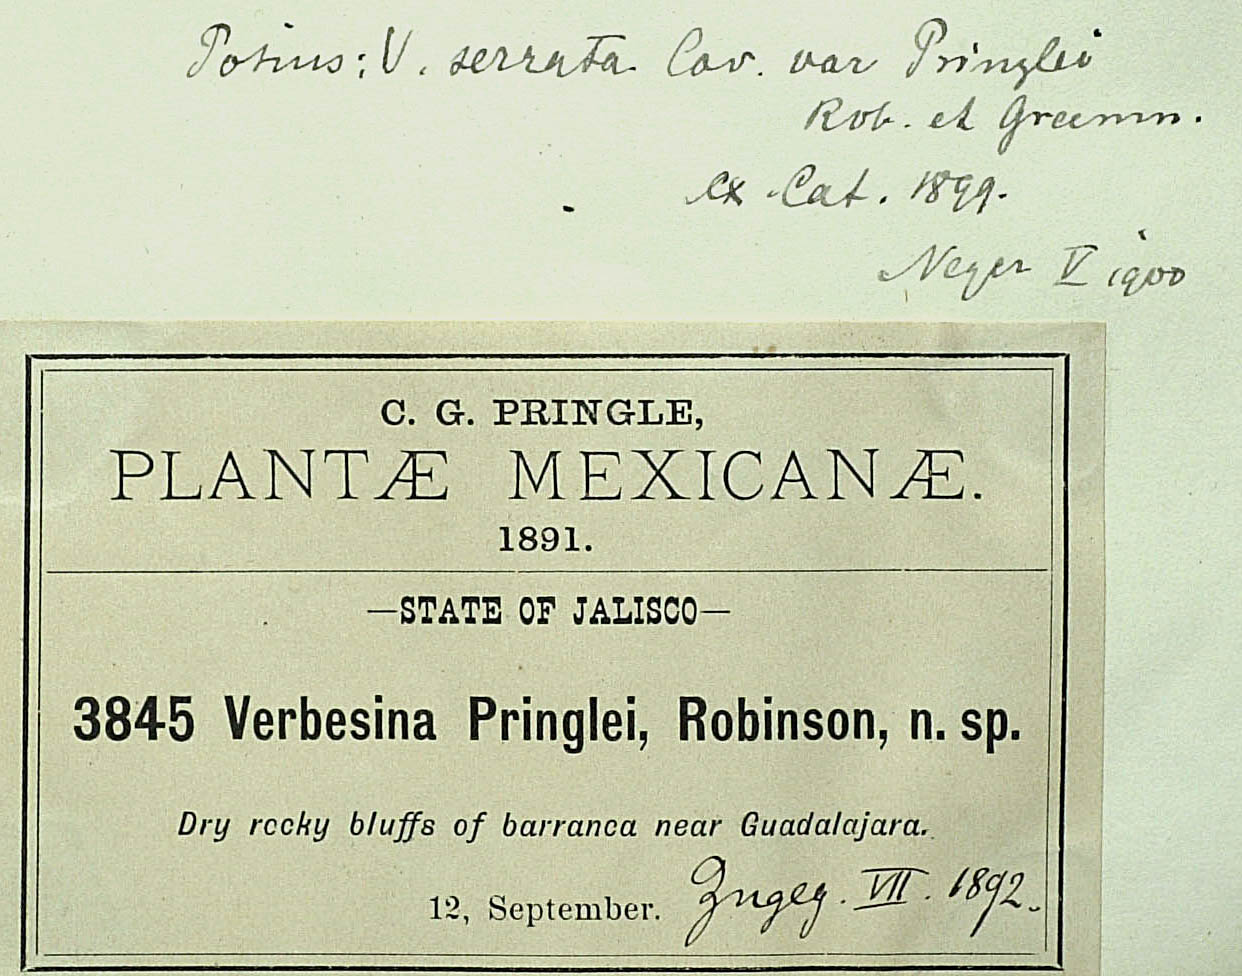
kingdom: Plantae
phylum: Tracheophyta
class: Magnoliopsida
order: Asterales
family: Asteraceae
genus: Verbesina
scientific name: Verbesina serrata
